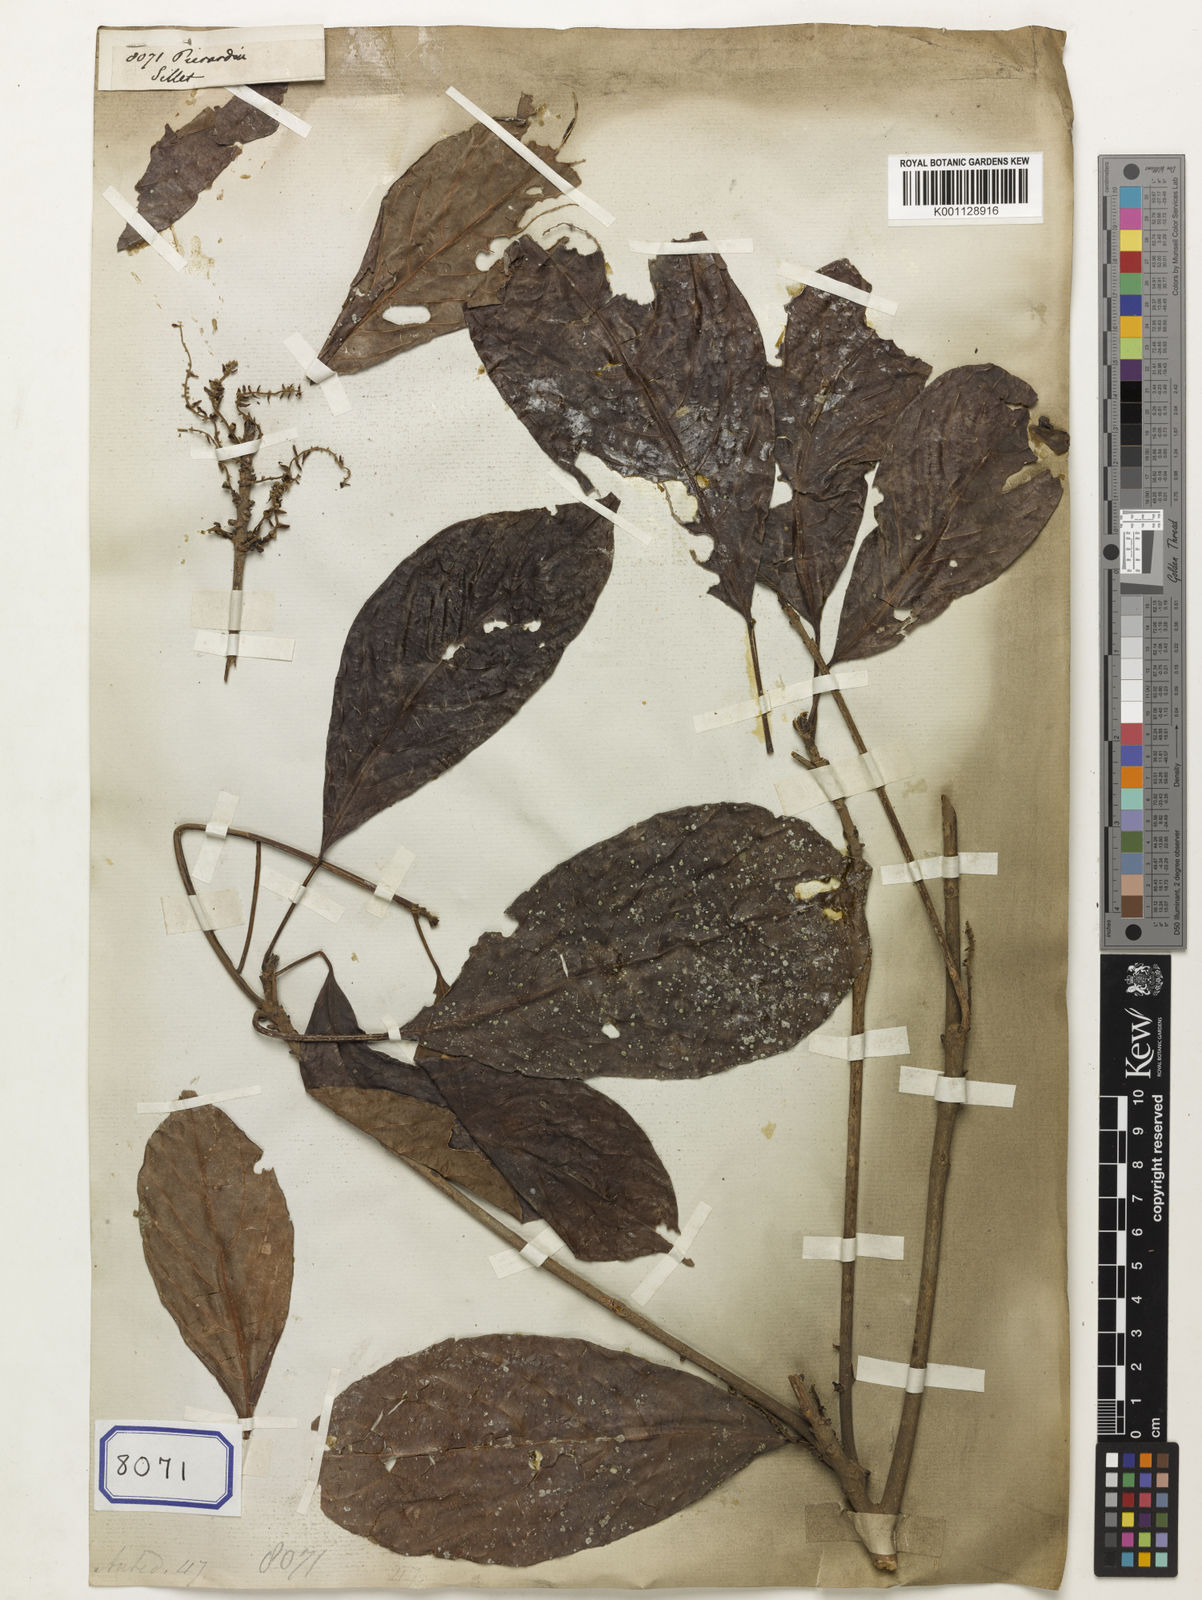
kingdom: Plantae
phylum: Tracheophyta
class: Magnoliopsida
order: Malpighiales
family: Phyllanthaceae
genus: Baccaurea
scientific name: Baccaurea
